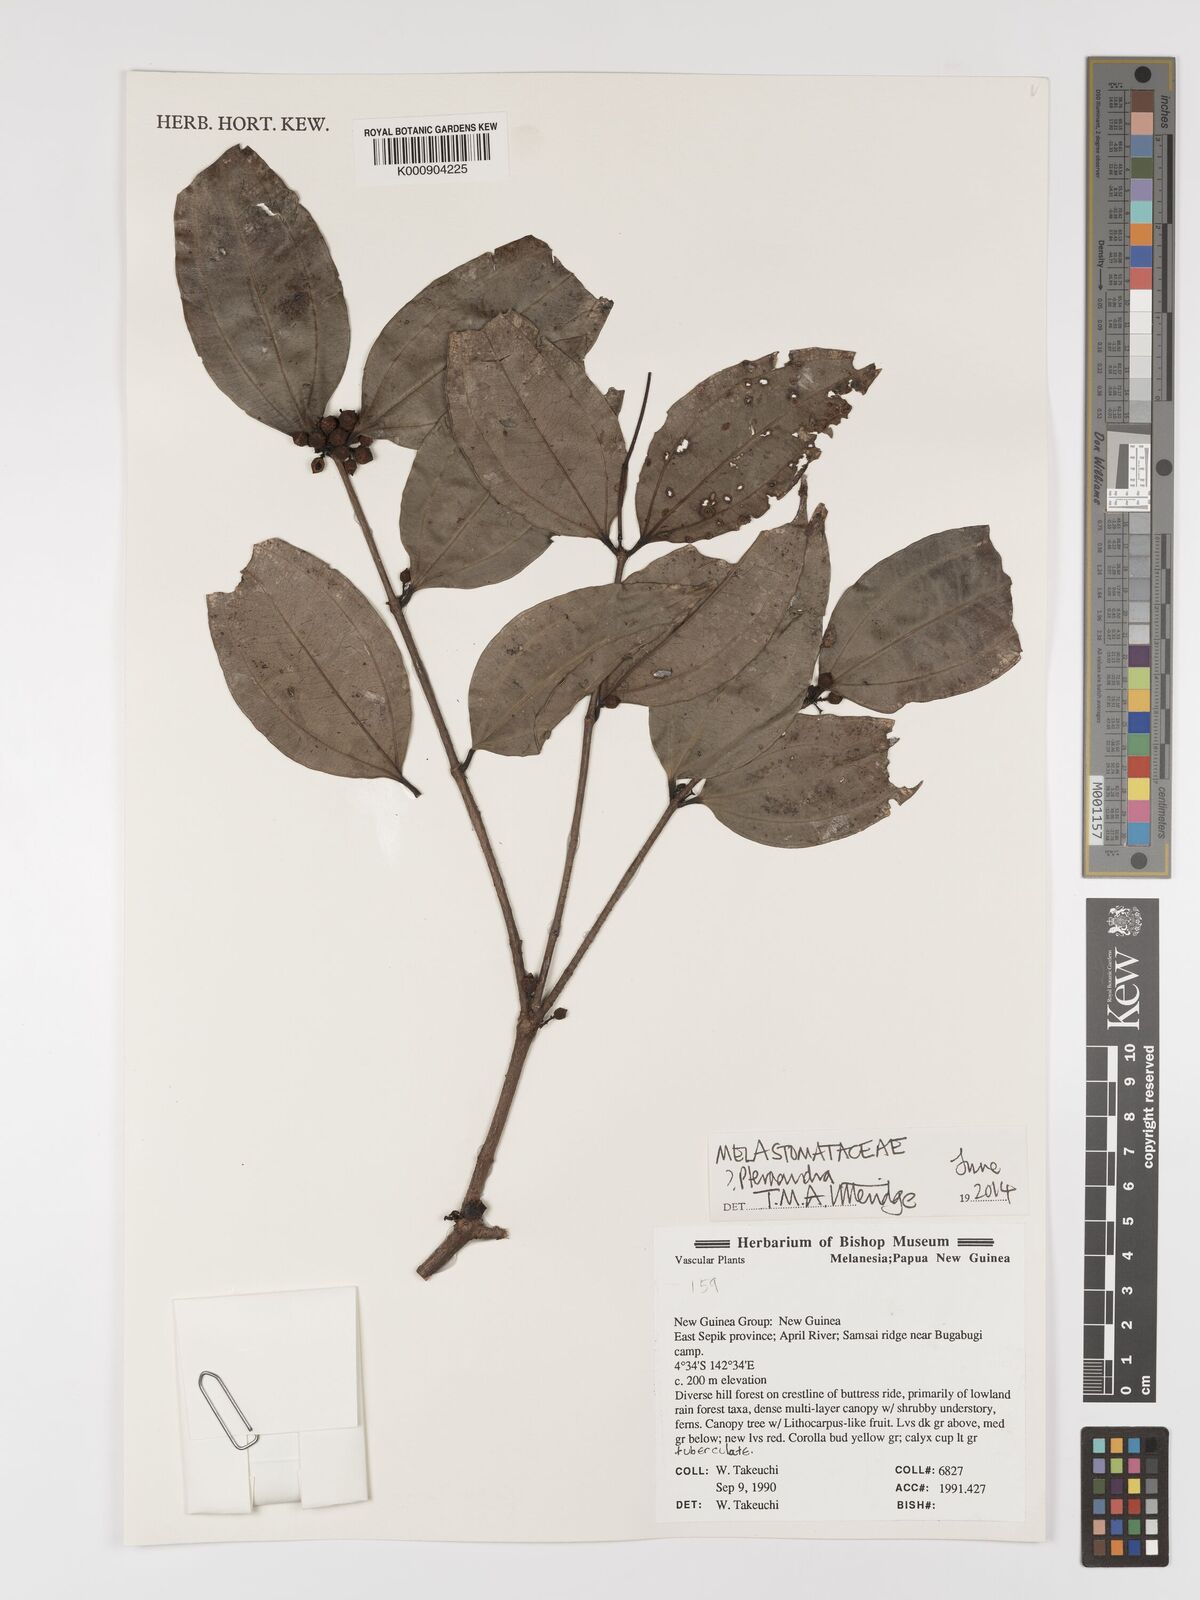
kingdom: Plantae
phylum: Tracheophyta
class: Magnoliopsida
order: Myrtales
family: Melastomataceae
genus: Pternandra
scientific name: Pternandra
